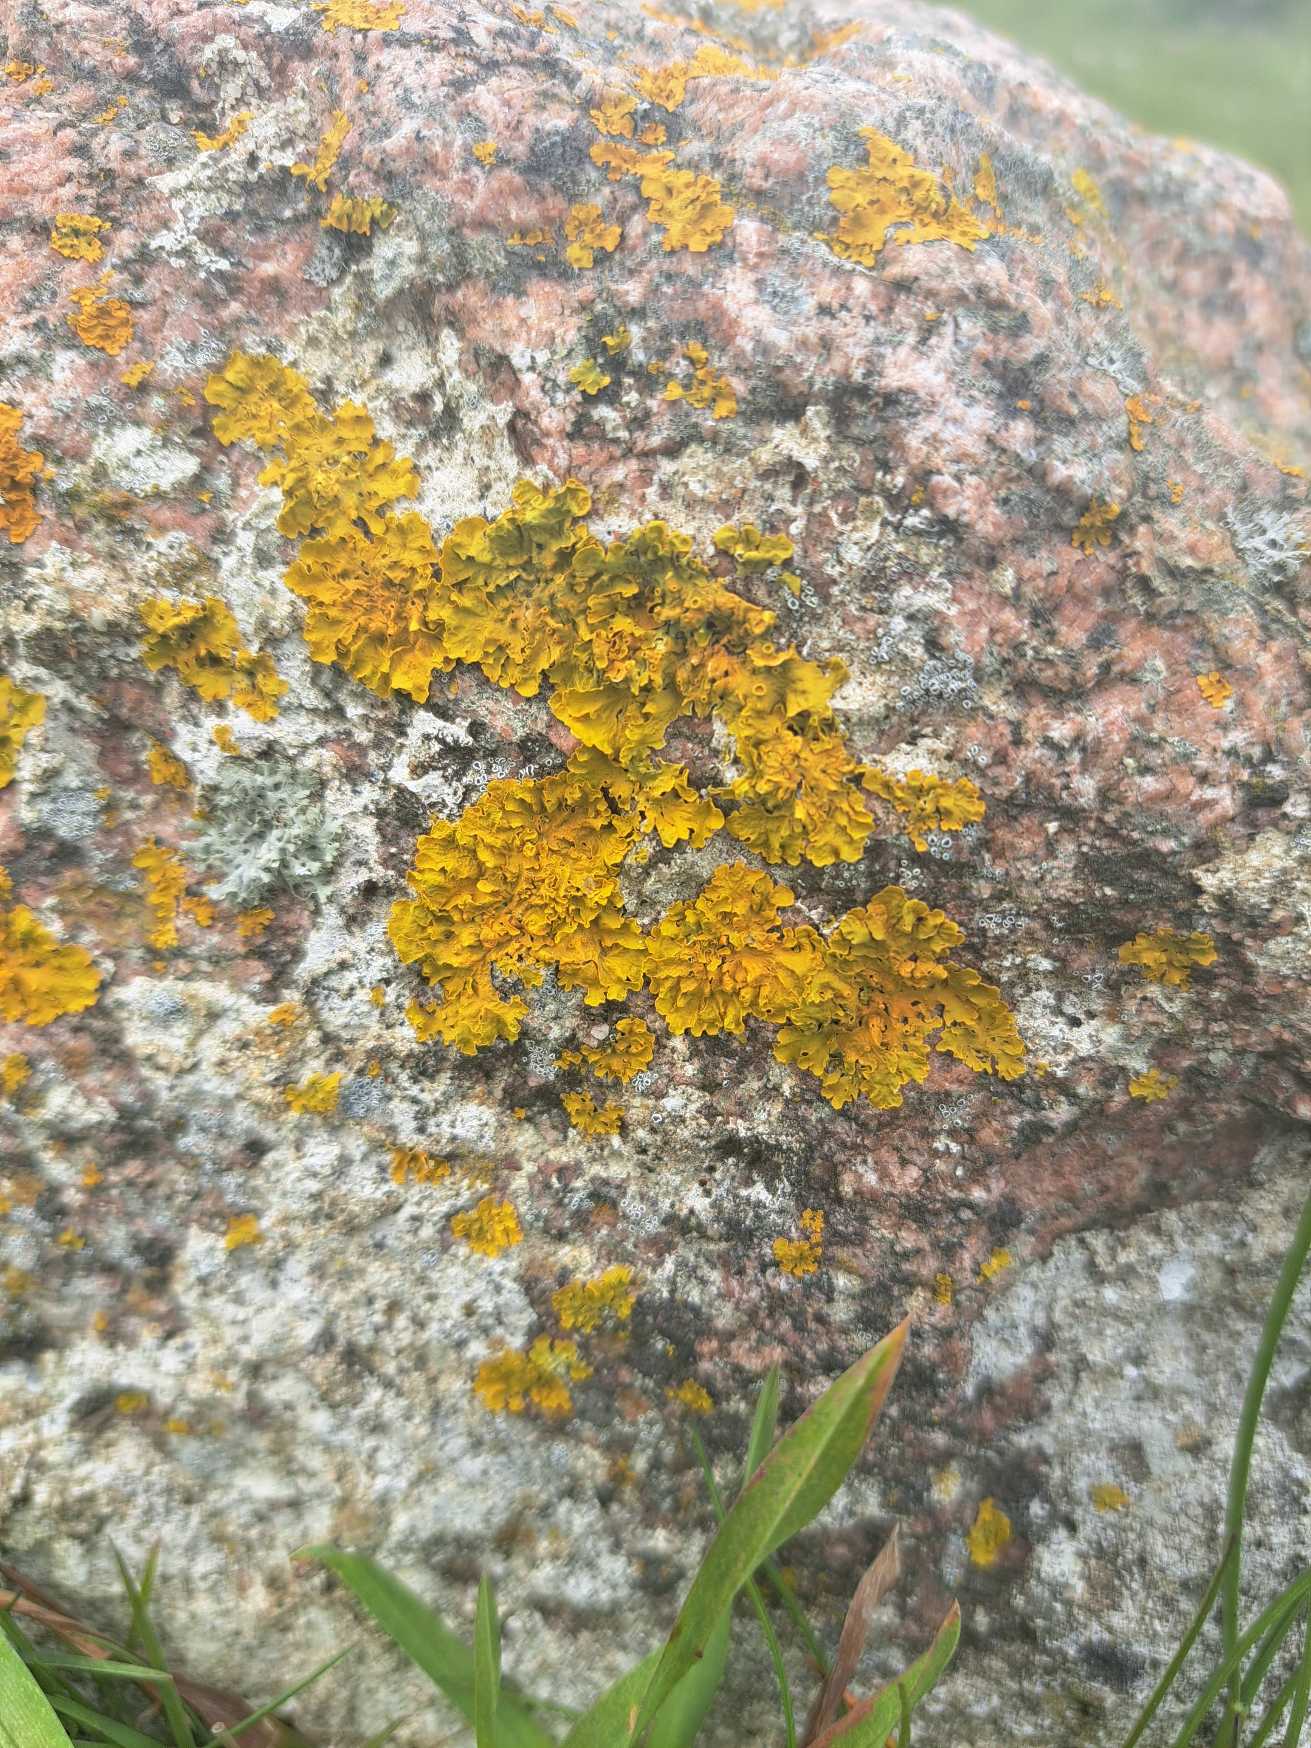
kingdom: Fungi
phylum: Ascomycota
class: Lecanoromycetes
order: Teloschistales
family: Teloschistaceae
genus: Xanthoria
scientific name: Xanthoria parietina
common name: Almindelig væggelav
